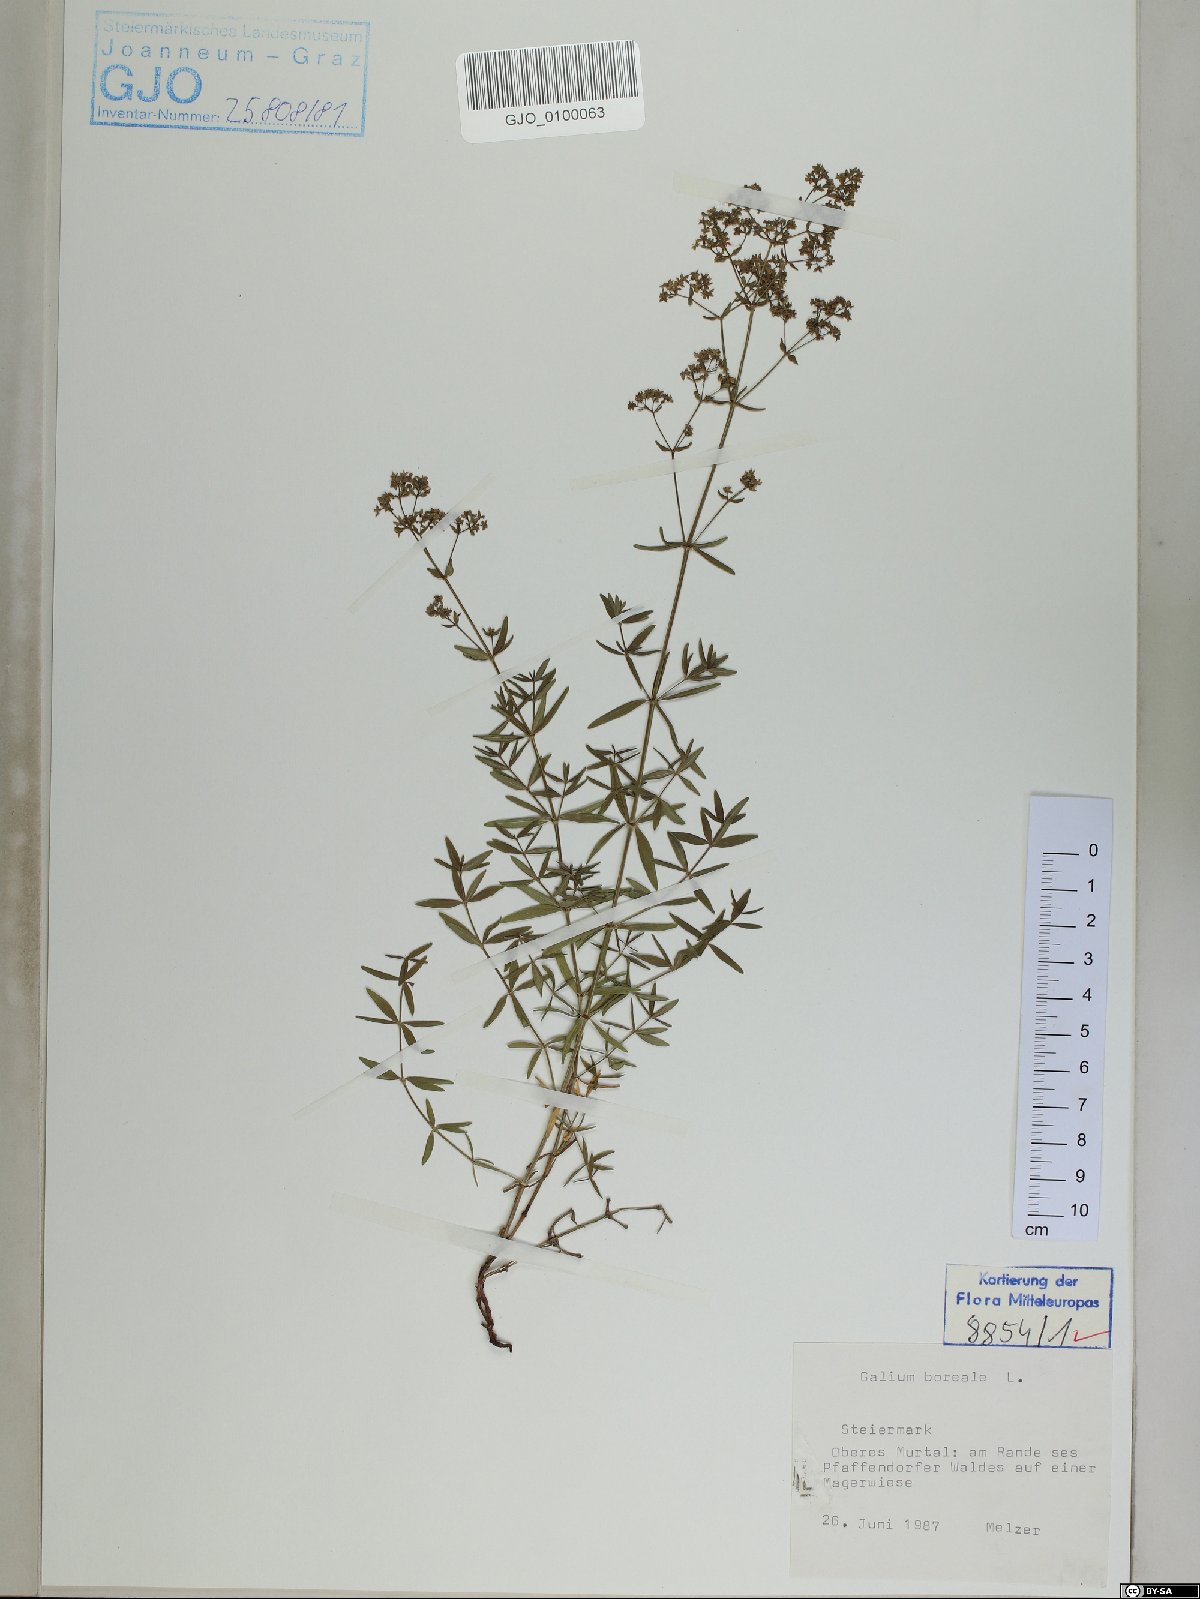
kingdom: Plantae
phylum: Tracheophyta
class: Magnoliopsida
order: Gentianales
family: Rubiaceae
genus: Galium
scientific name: Galium boreale
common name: Northern bedstraw
